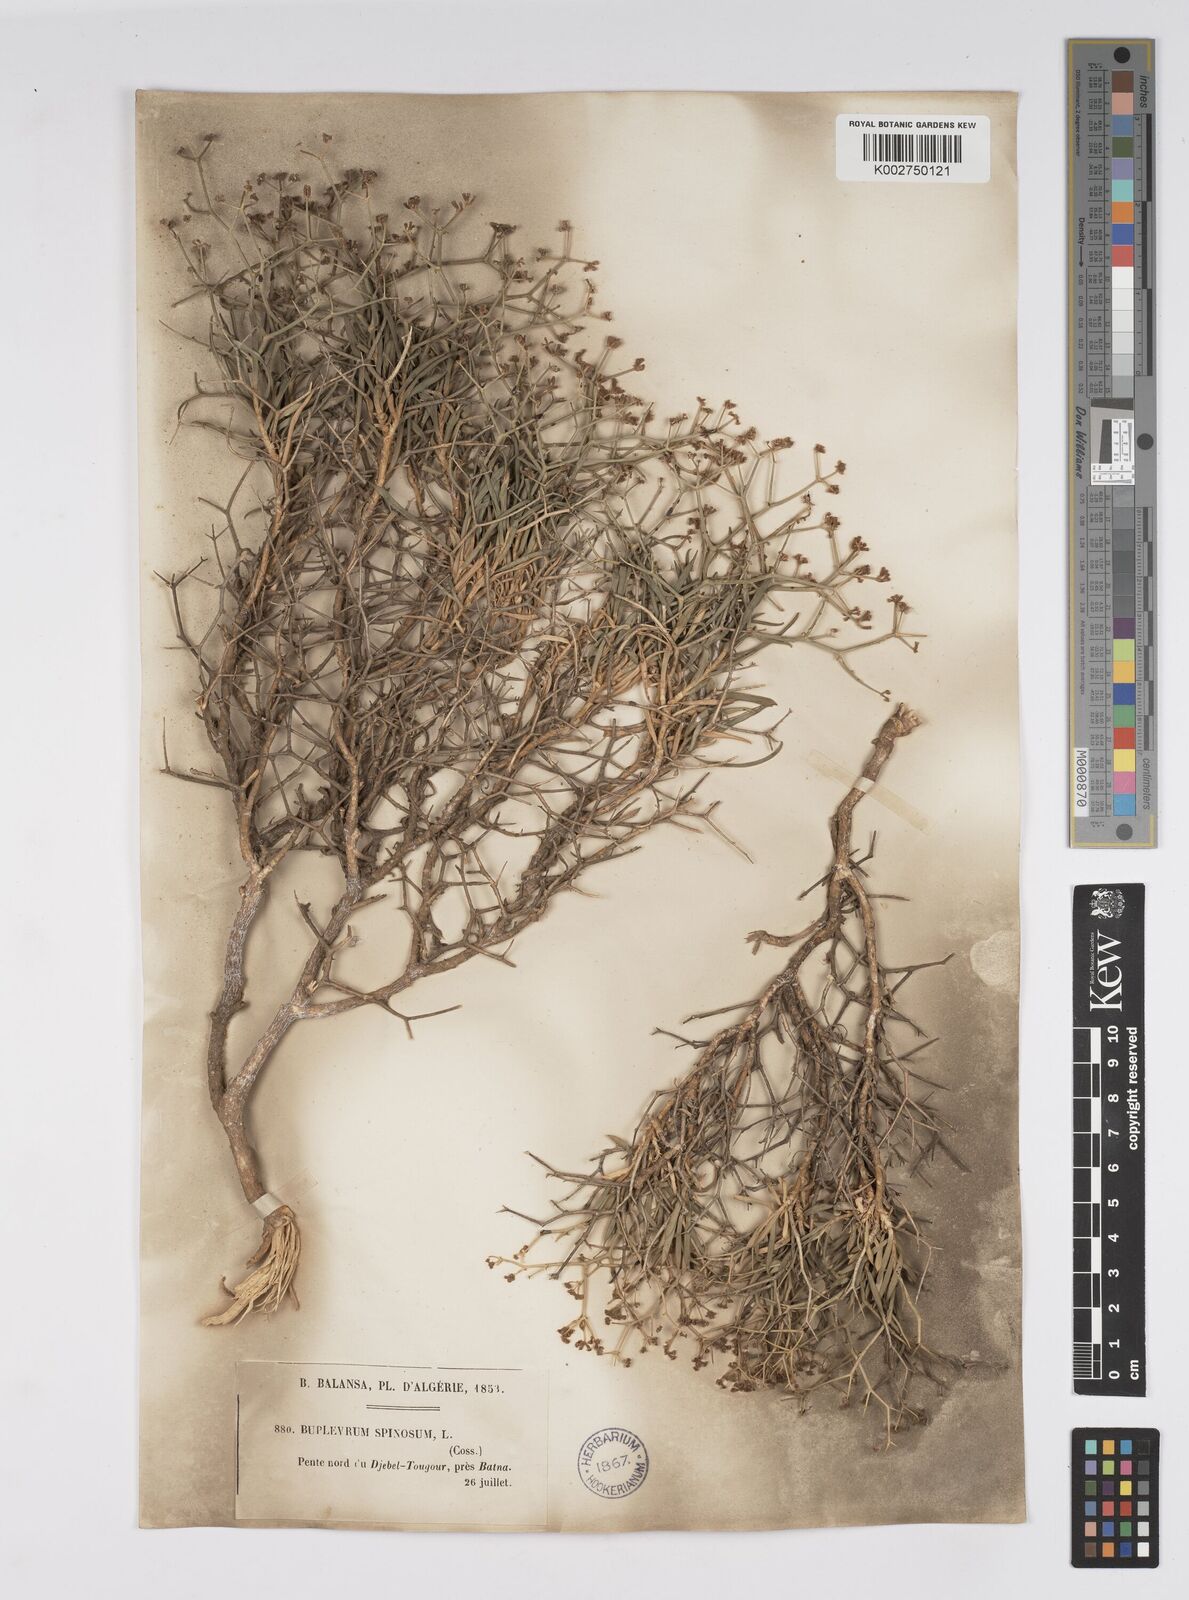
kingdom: Plantae
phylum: Tracheophyta
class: Magnoliopsida
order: Apiales
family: Apiaceae
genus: Bupleurum
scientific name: Bupleurum fruticescens
